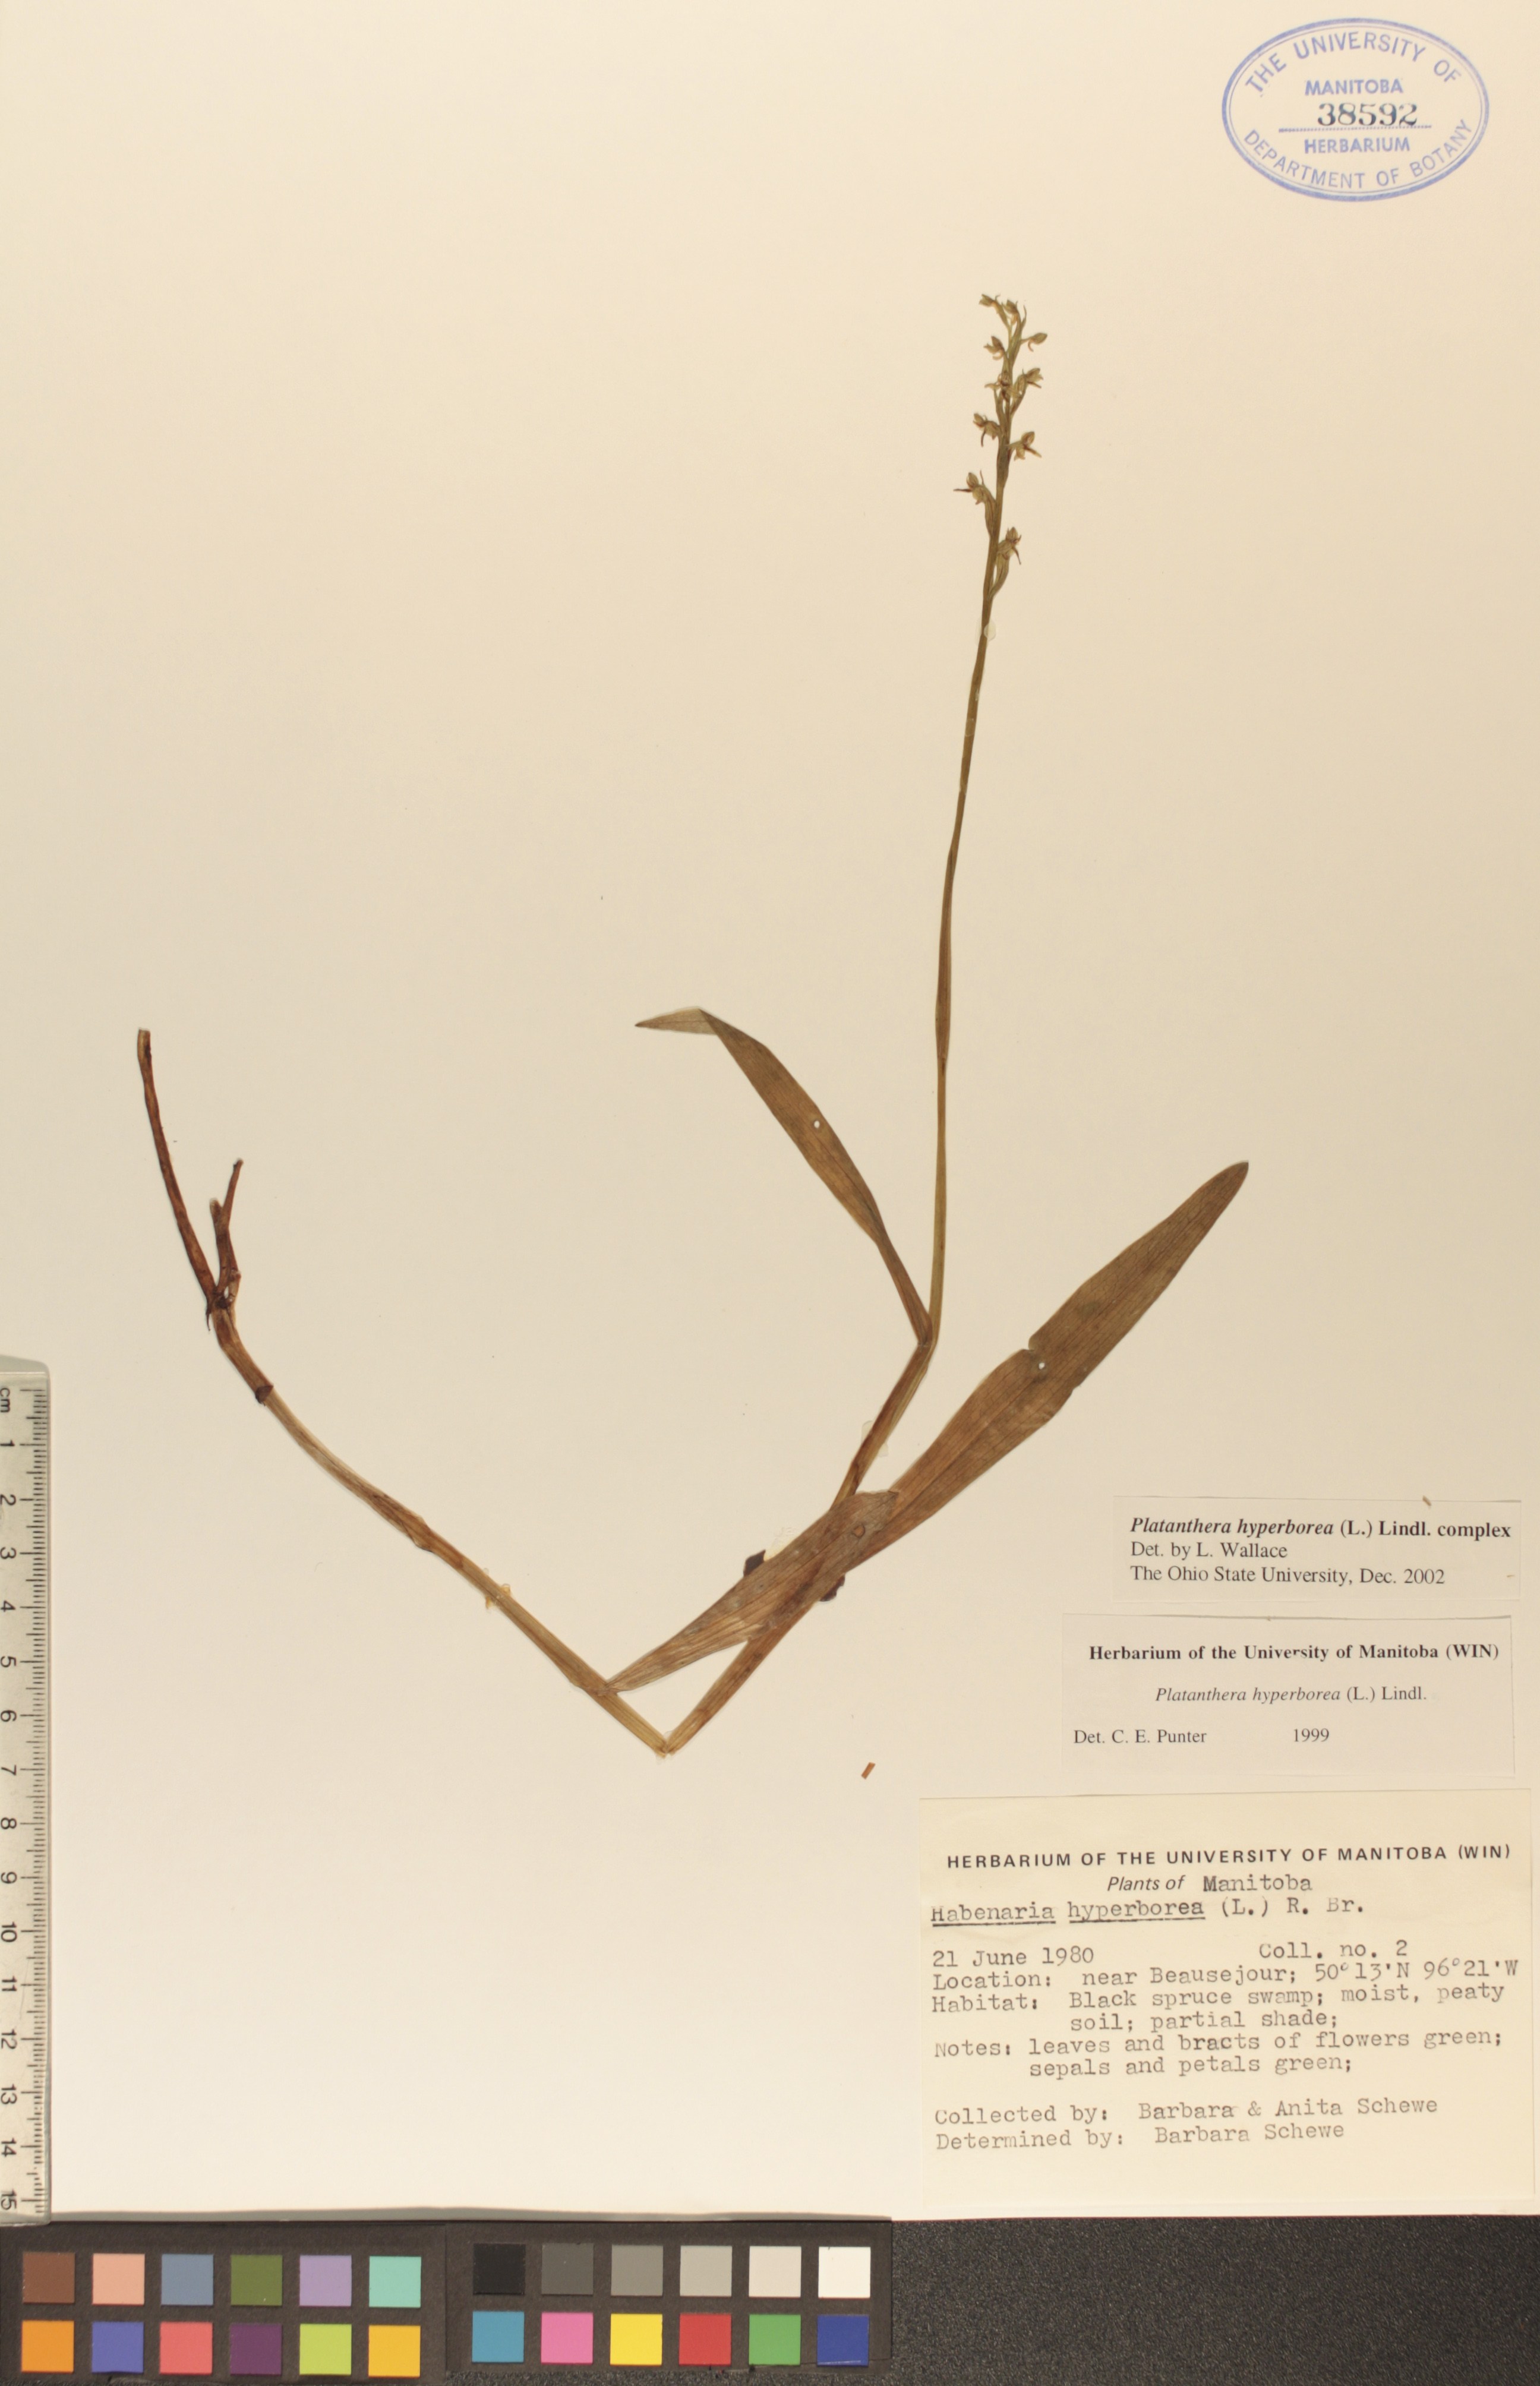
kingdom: Plantae
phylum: Tracheophyta
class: Liliopsida
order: Asparagales
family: Orchidaceae
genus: Platanthera
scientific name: Platanthera hyperborea
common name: Northern green orchid
